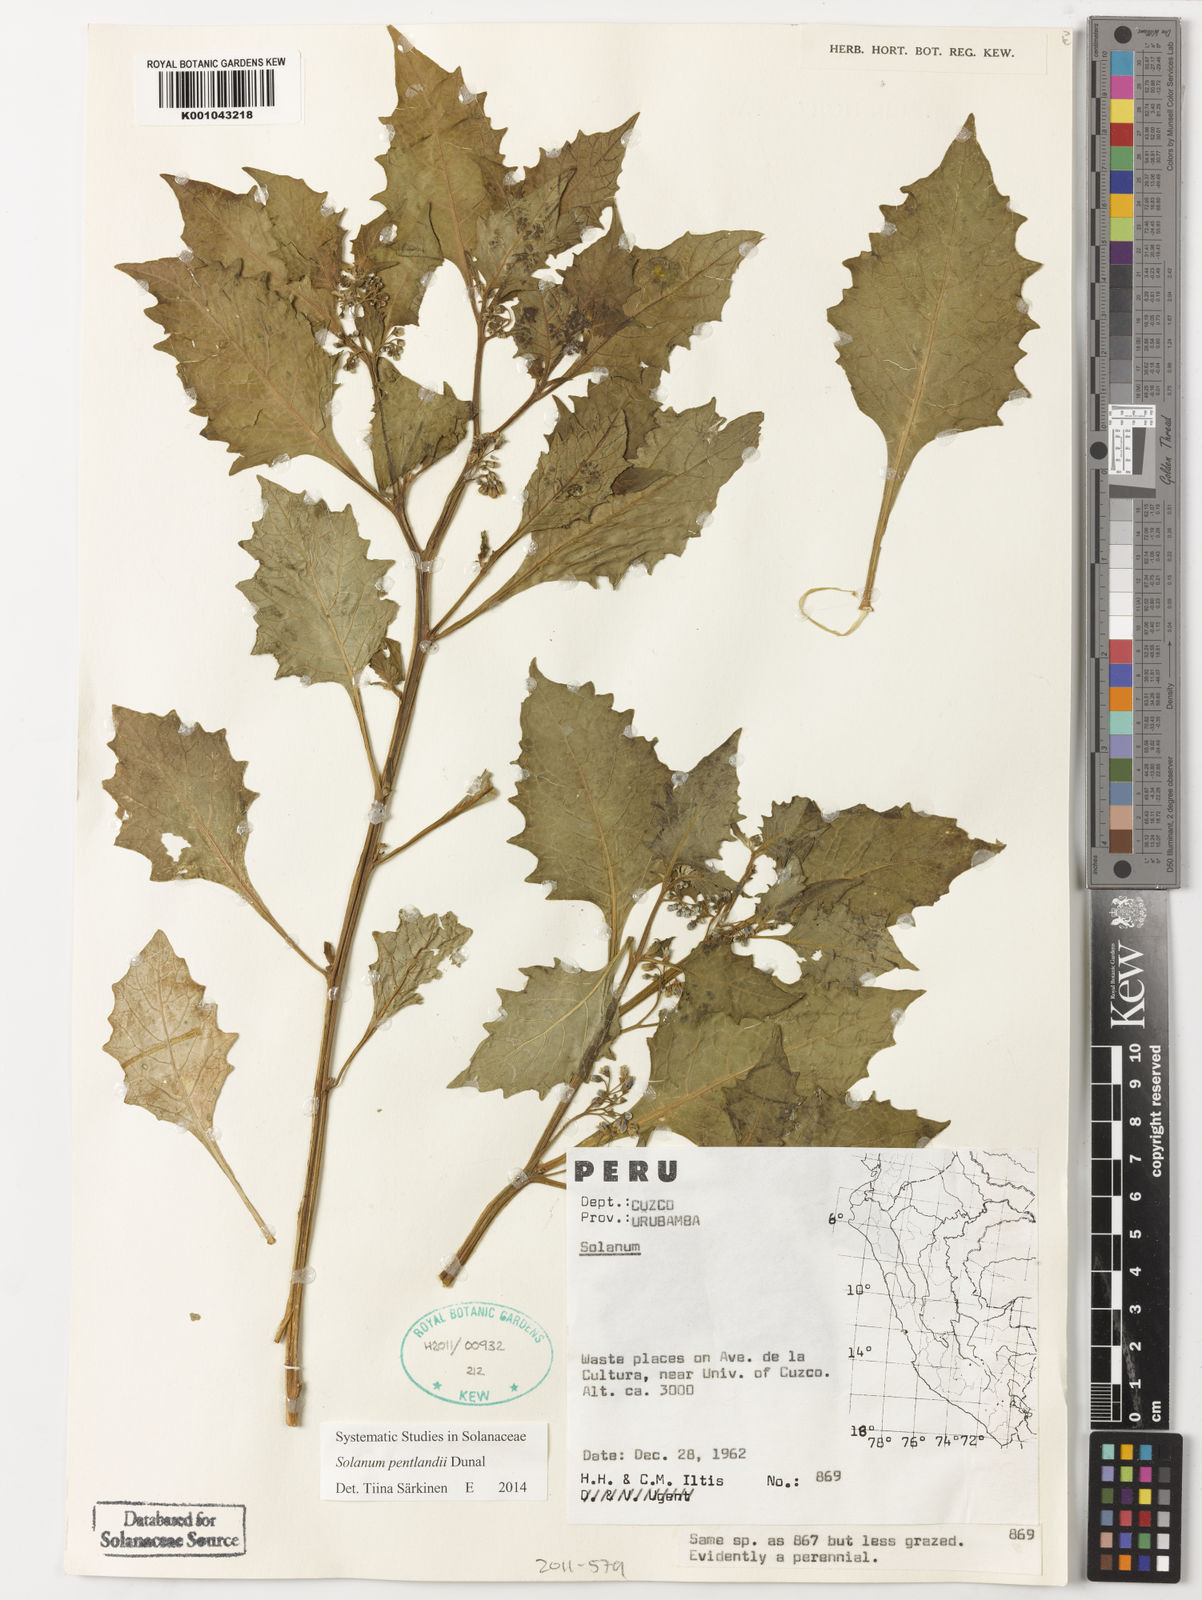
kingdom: Plantae
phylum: Tracheophyta
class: Magnoliopsida
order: Solanales
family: Solanaceae
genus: Solanum
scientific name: Solanum pentlandii
